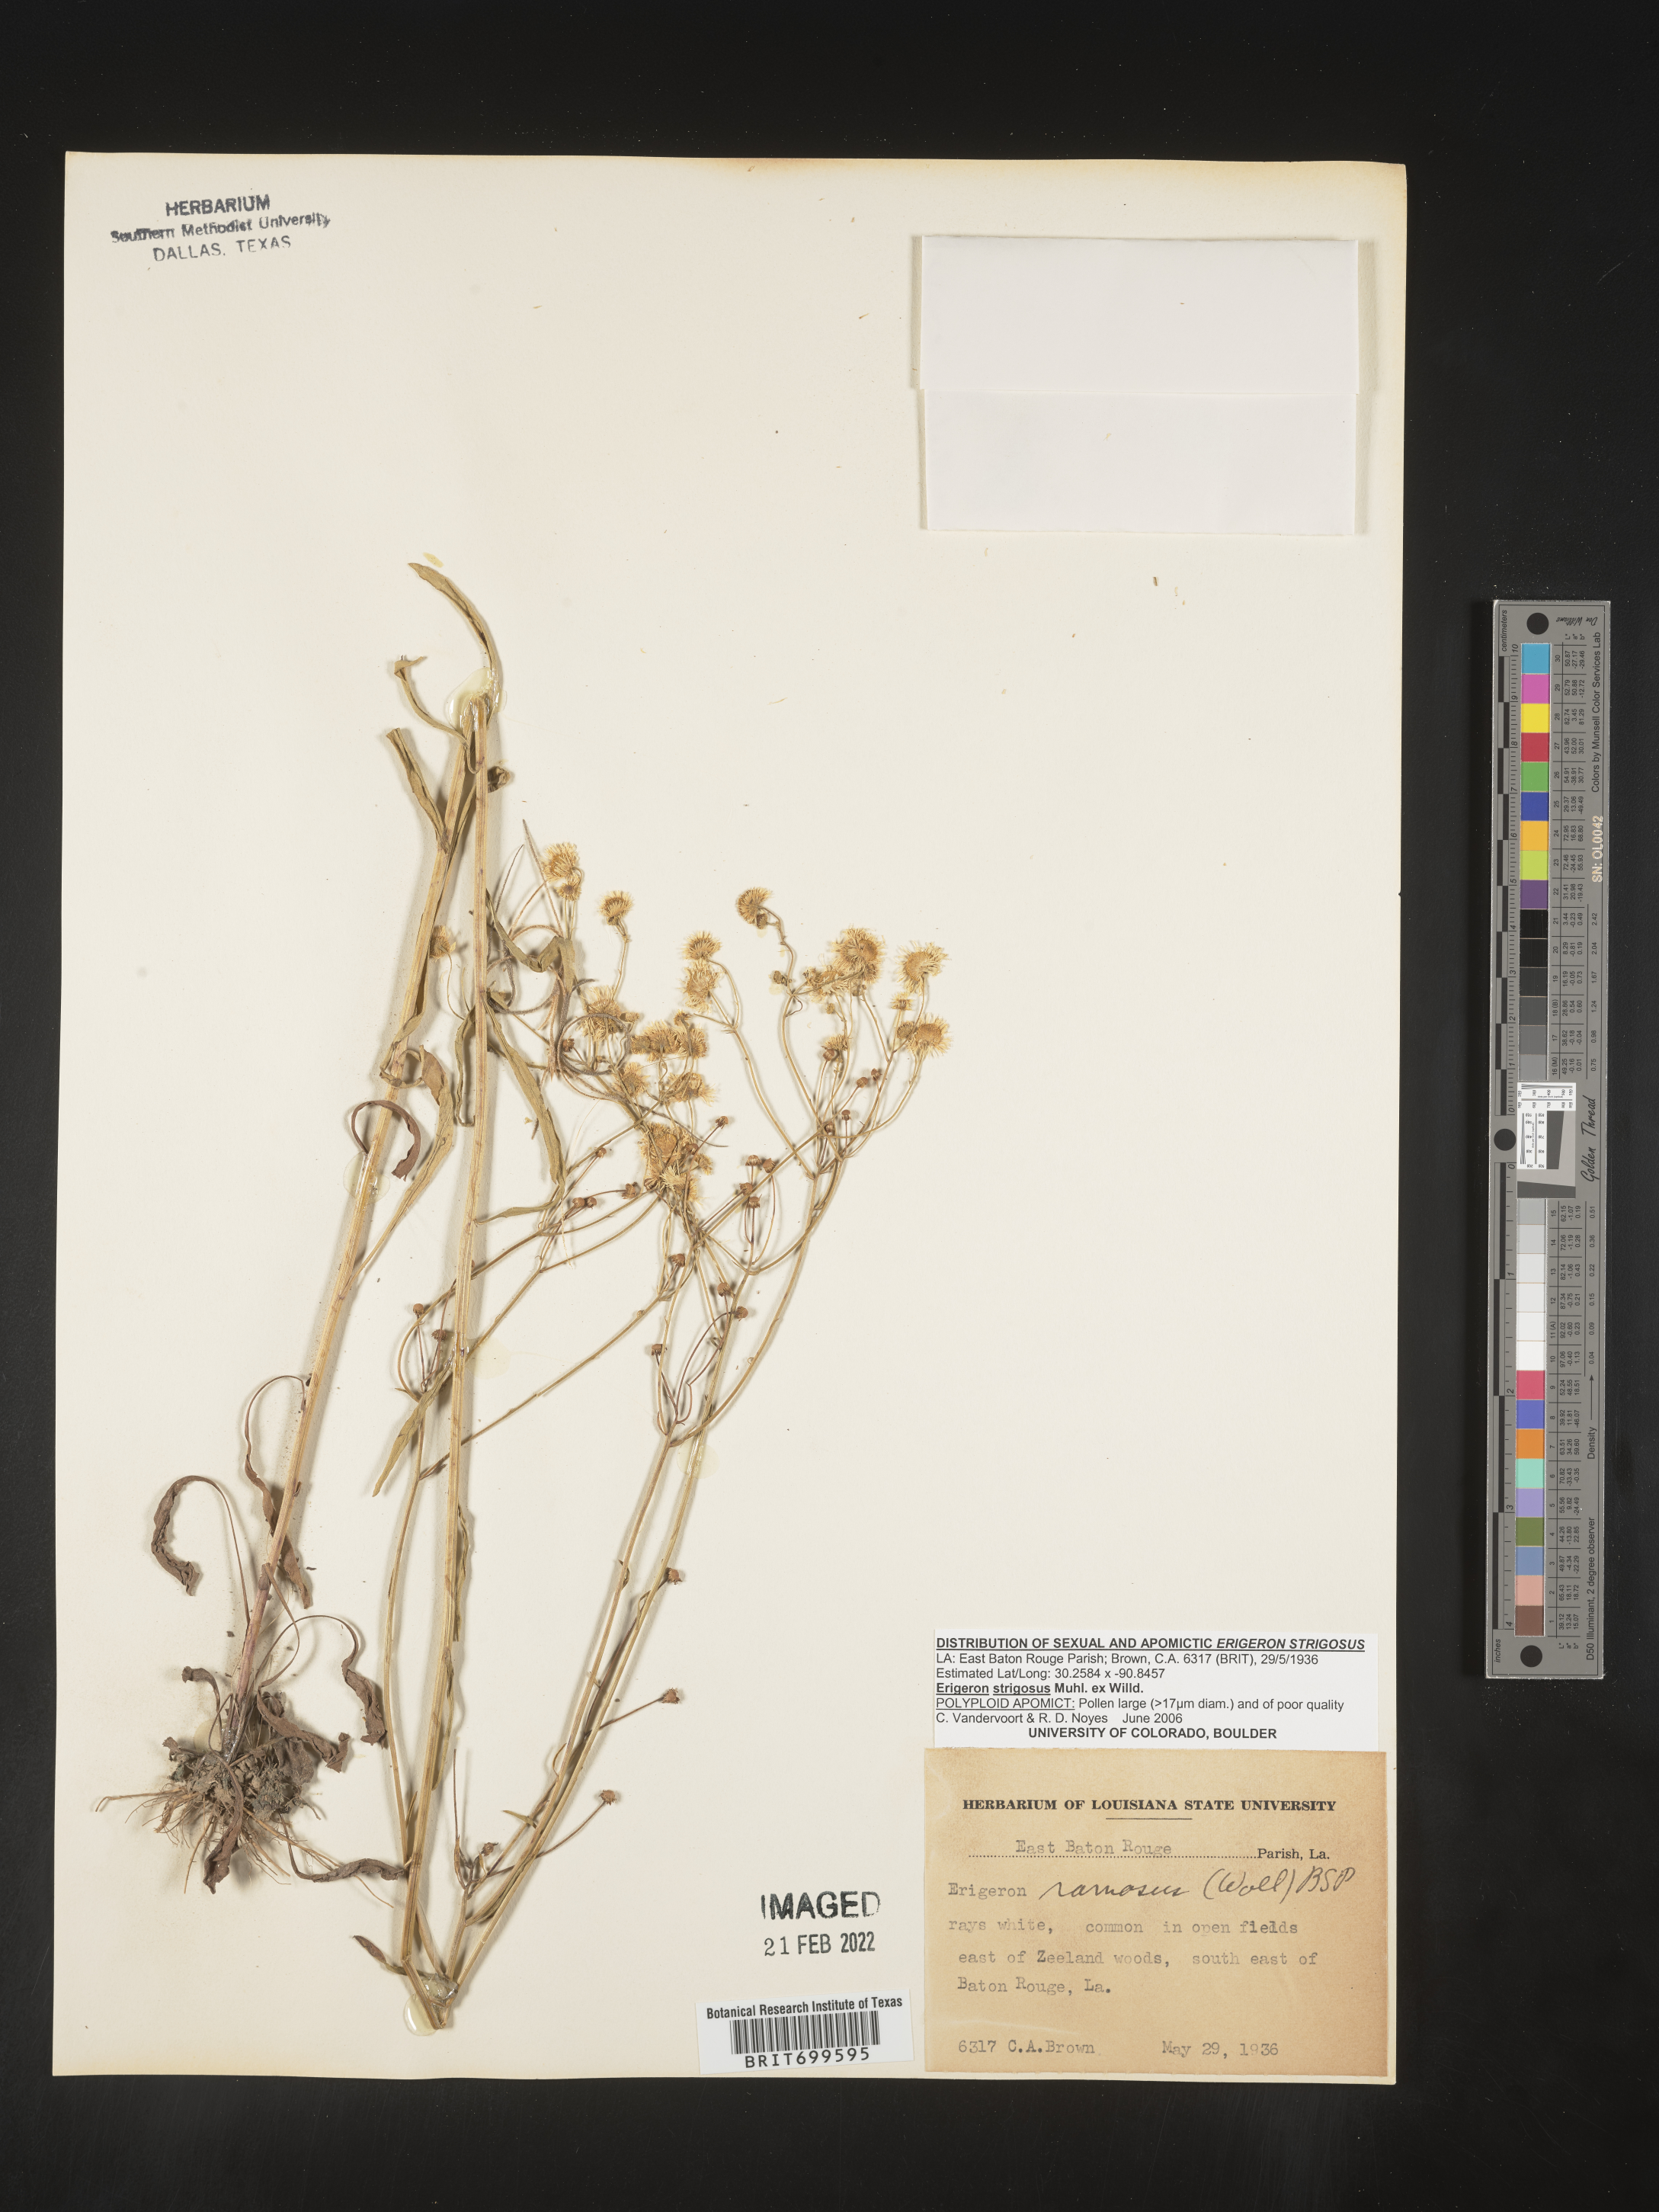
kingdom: Plantae
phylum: Tracheophyta
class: Magnoliopsida
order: Asterales
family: Asteraceae
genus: Erigeron
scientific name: Erigeron strigosus
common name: Common eastern fleabane
